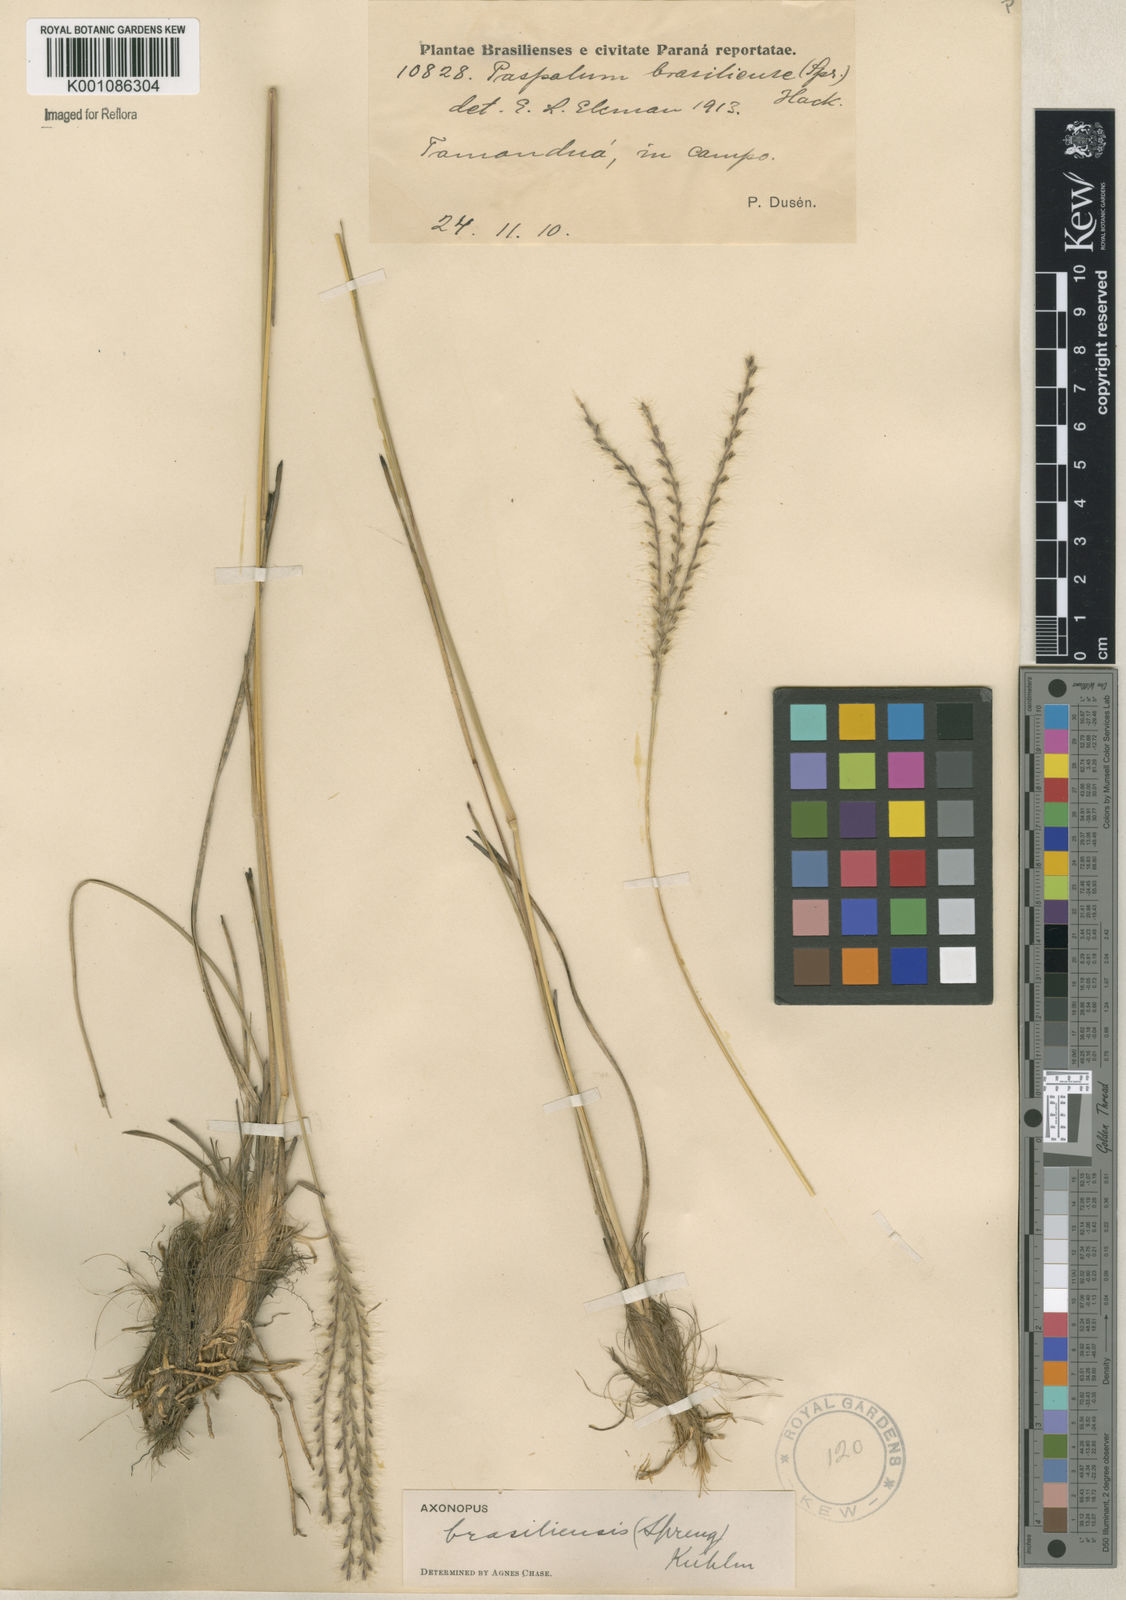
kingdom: Plantae
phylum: Tracheophyta
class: Liliopsida
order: Poales
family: Poaceae
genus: Axonopus
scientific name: Axonopus brasiliensis
